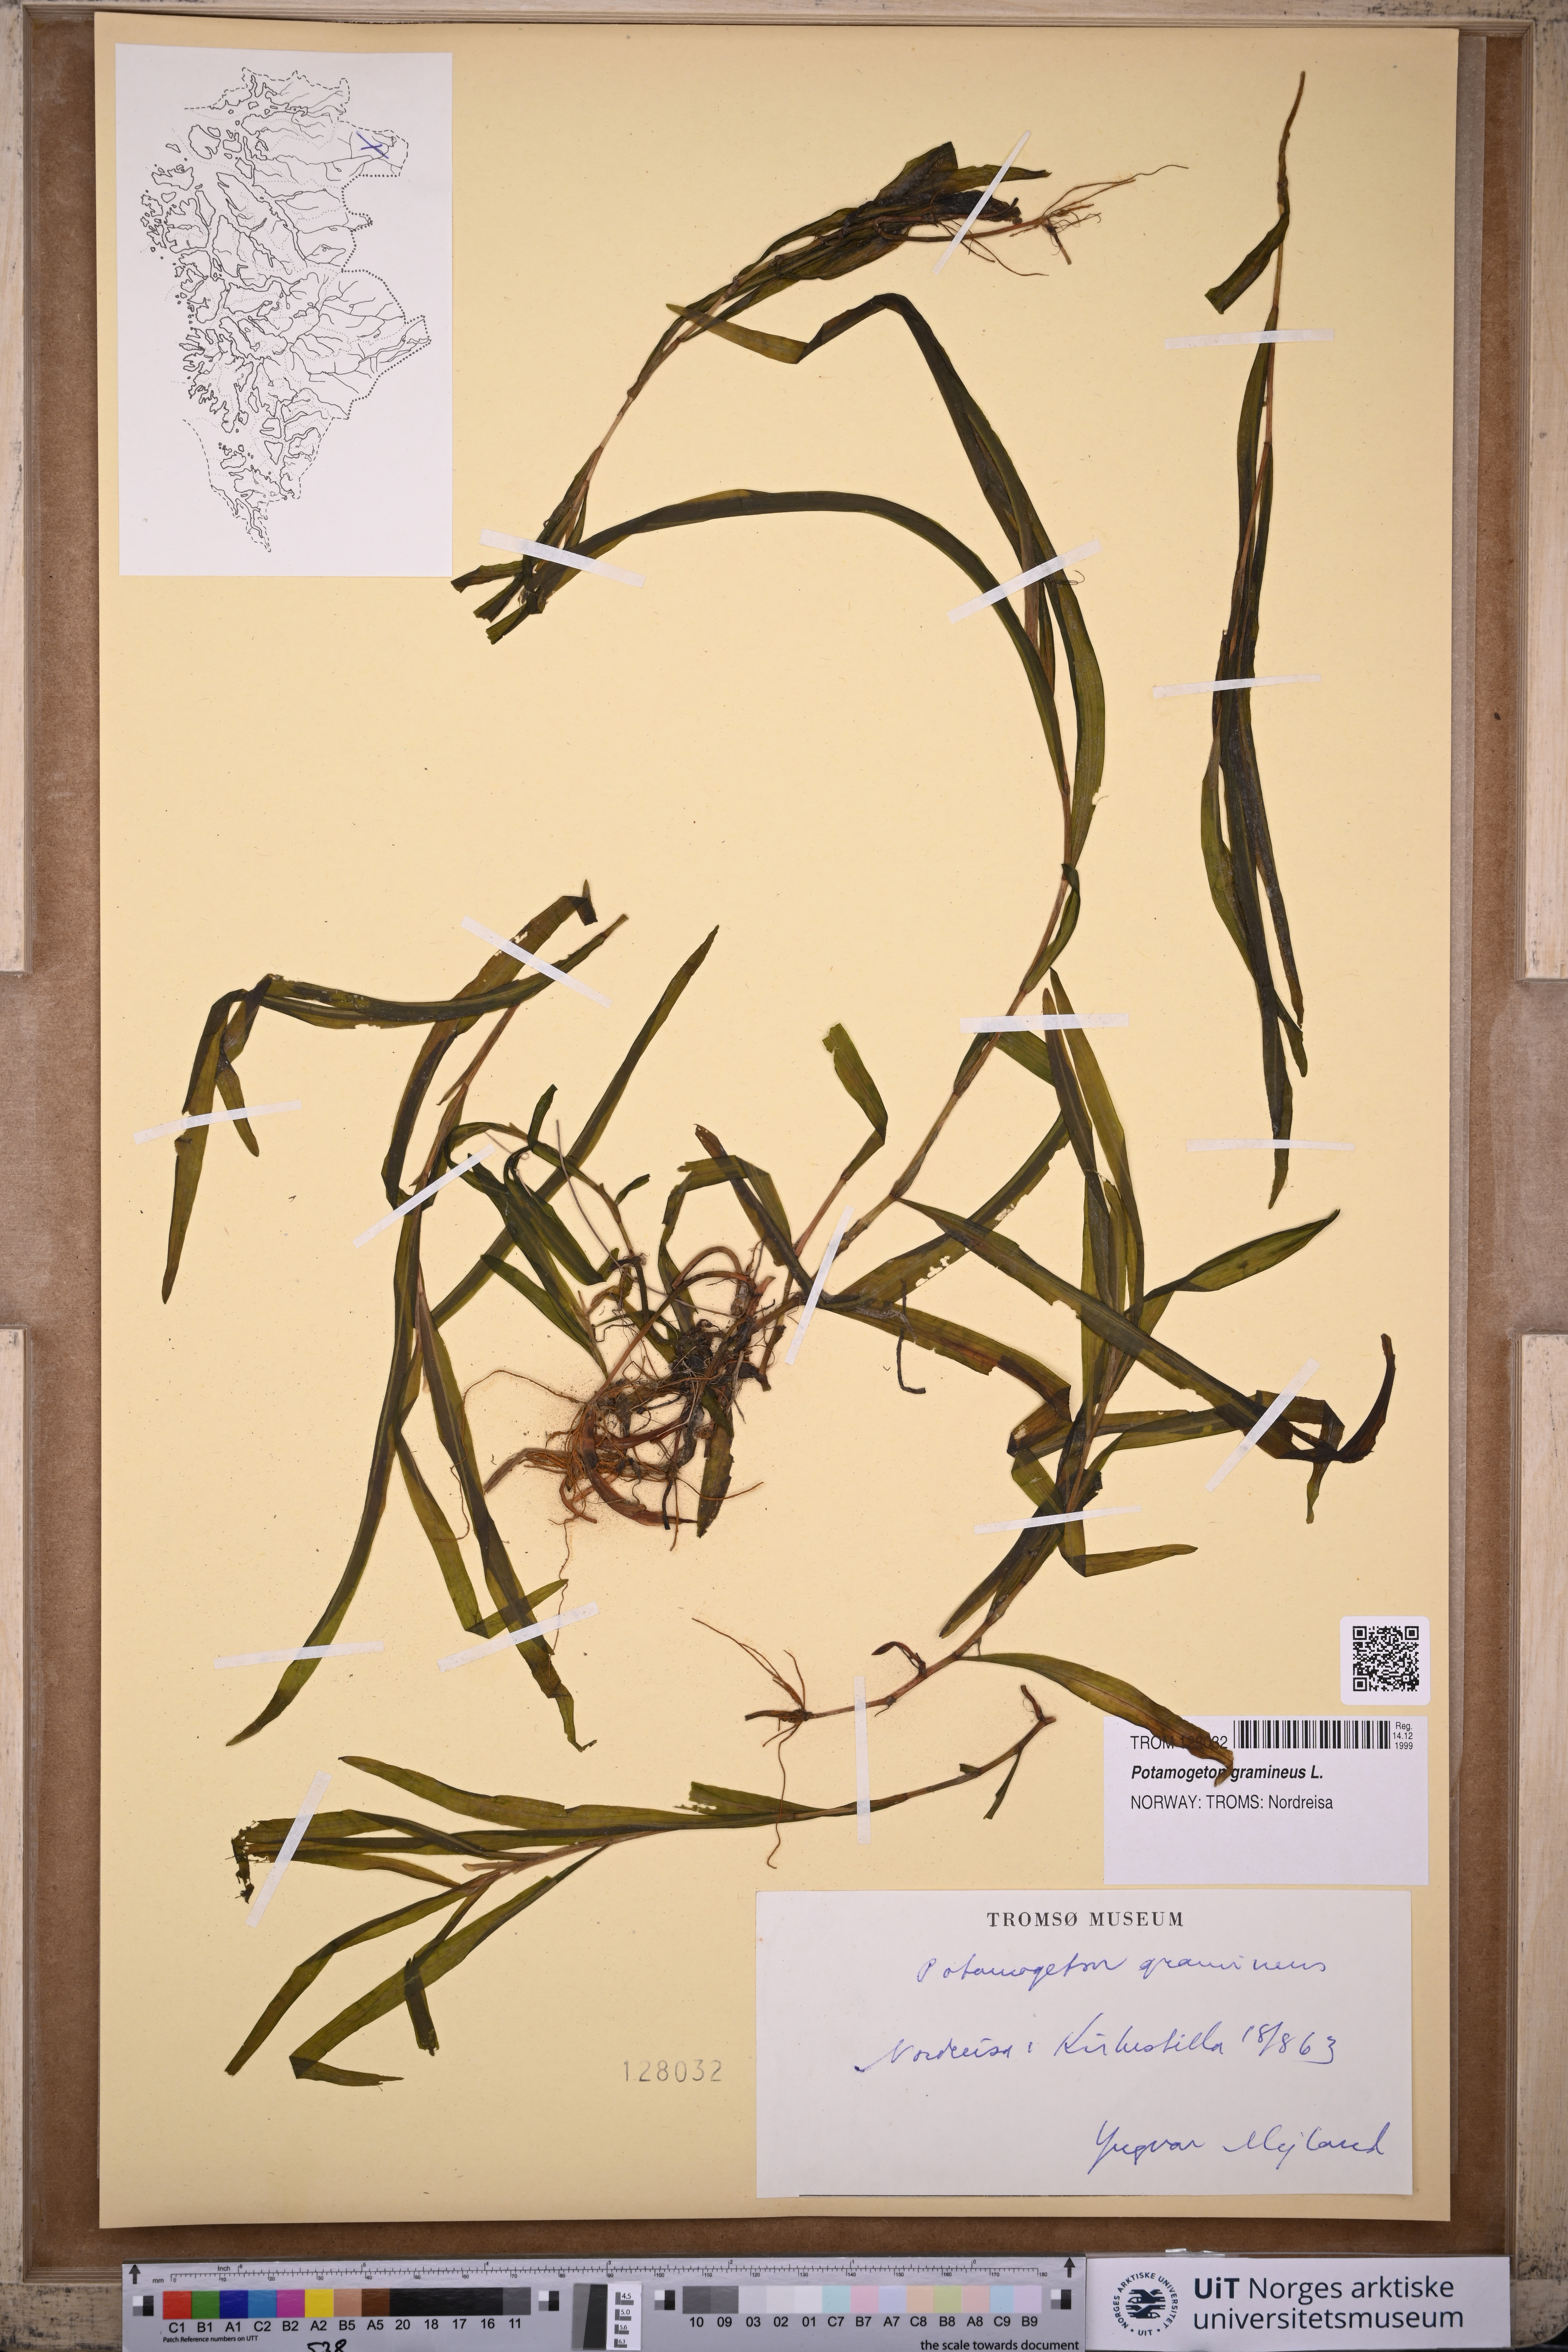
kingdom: Plantae
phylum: Tracheophyta
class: Liliopsida
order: Alismatales
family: Potamogetonaceae
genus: Potamogeton
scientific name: Potamogeton gramineus
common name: Various-leaved pondweed
